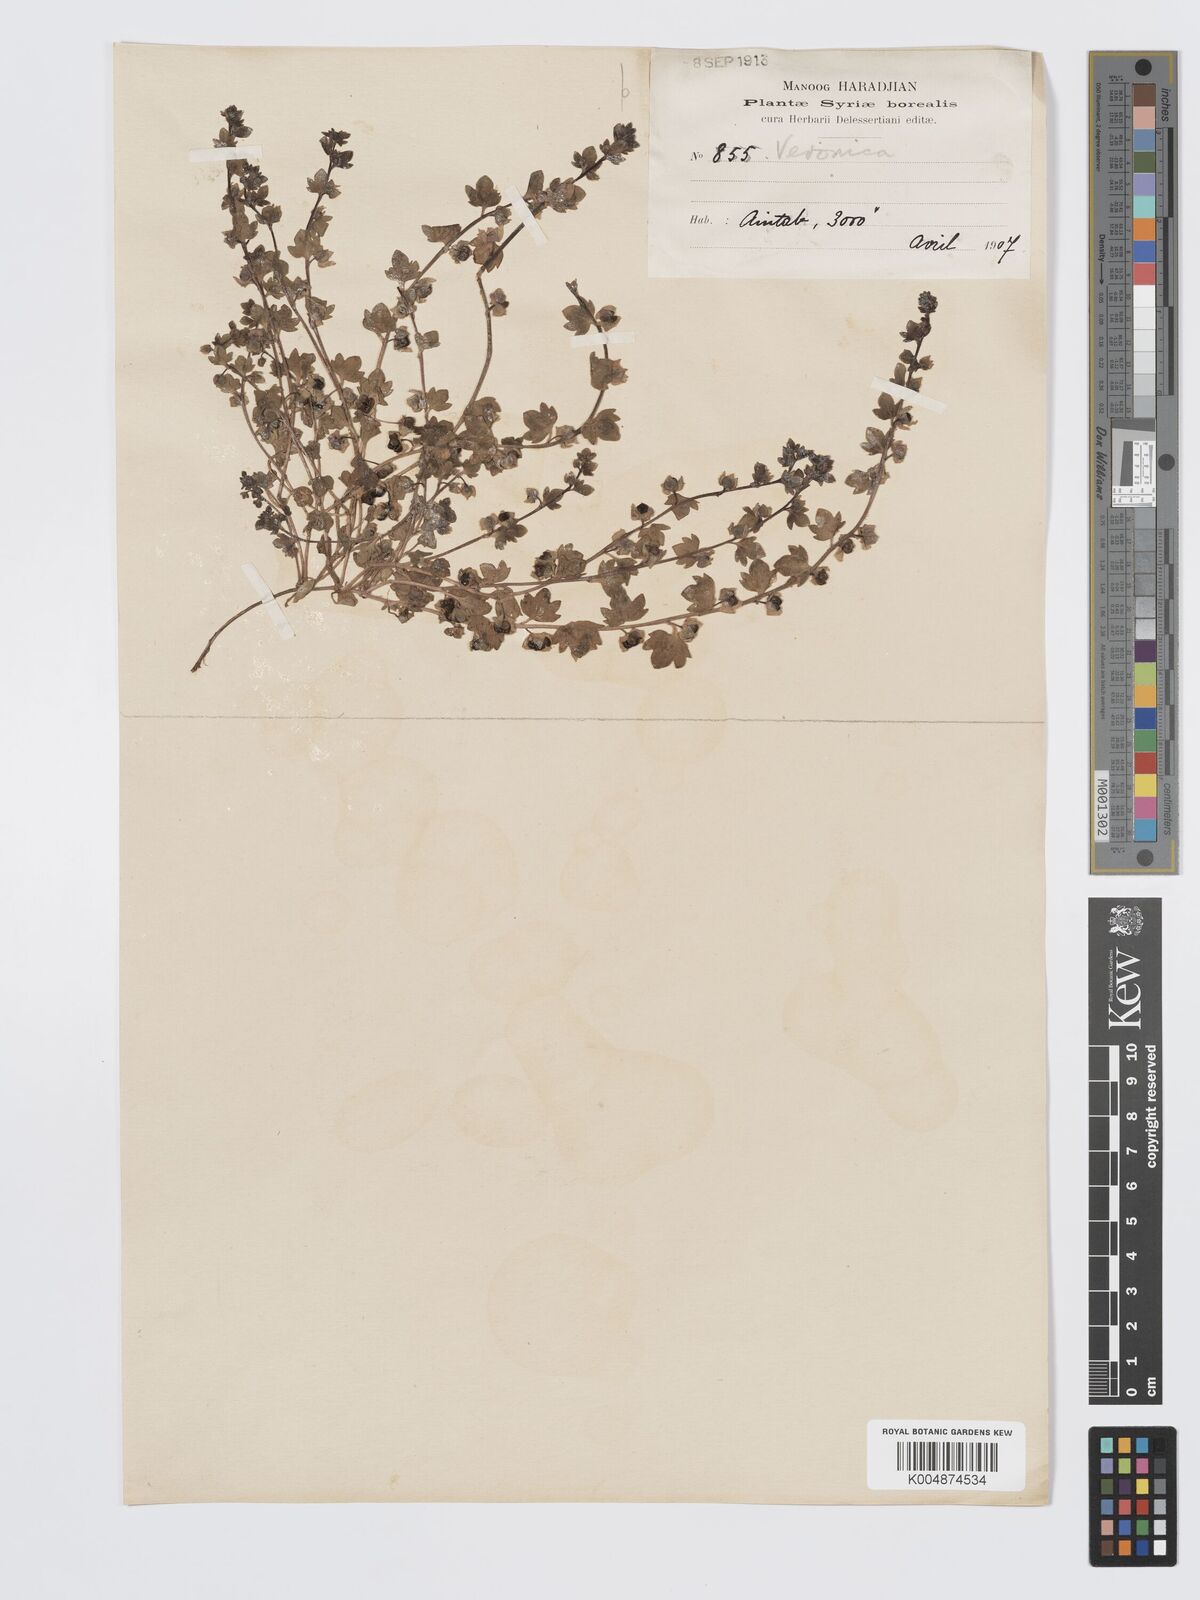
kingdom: Plantae
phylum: Tracheophyta
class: Magnoliopsida
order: Lamiales
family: Plantaginaceae
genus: Veronica
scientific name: Veronica triloba
